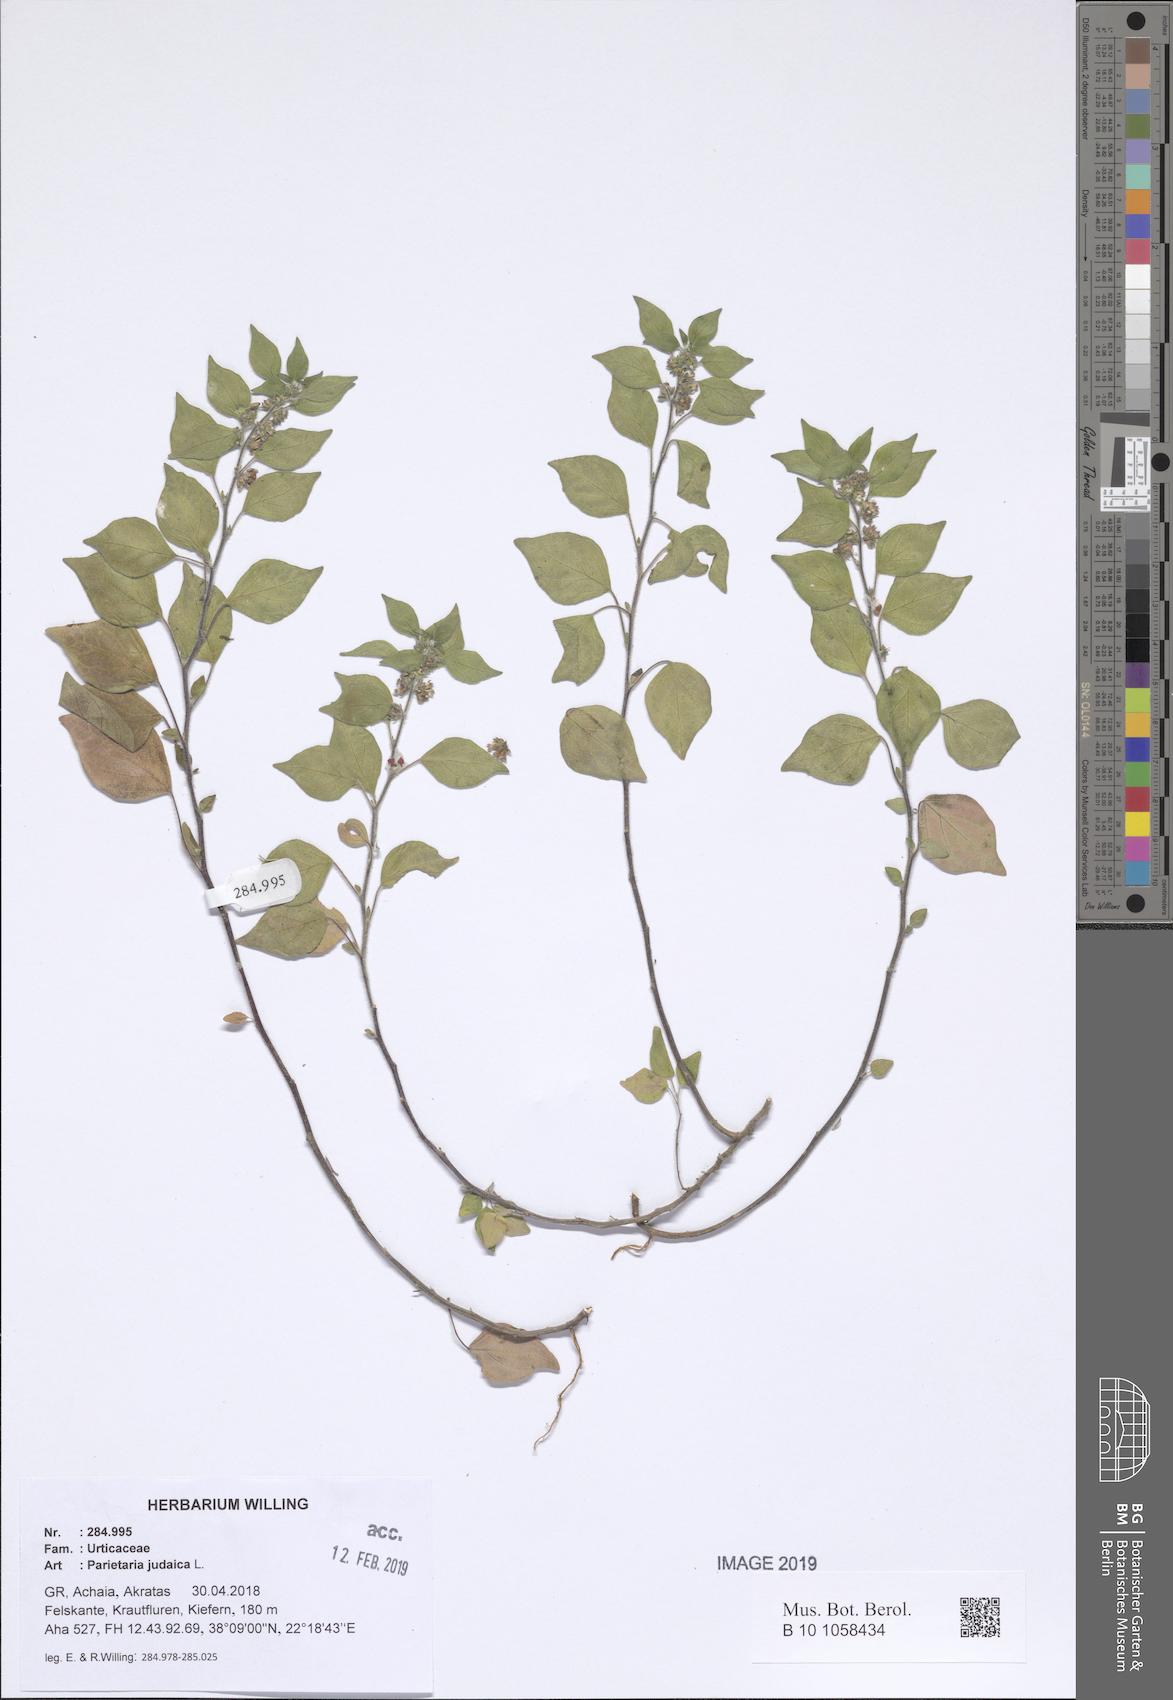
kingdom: Plantae
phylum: Tracheophyta
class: Magnoliopsida
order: Rosales
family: Urticaceae
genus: Parietaria
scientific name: Parietaria judaica
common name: Pellitory-of-the-wall
